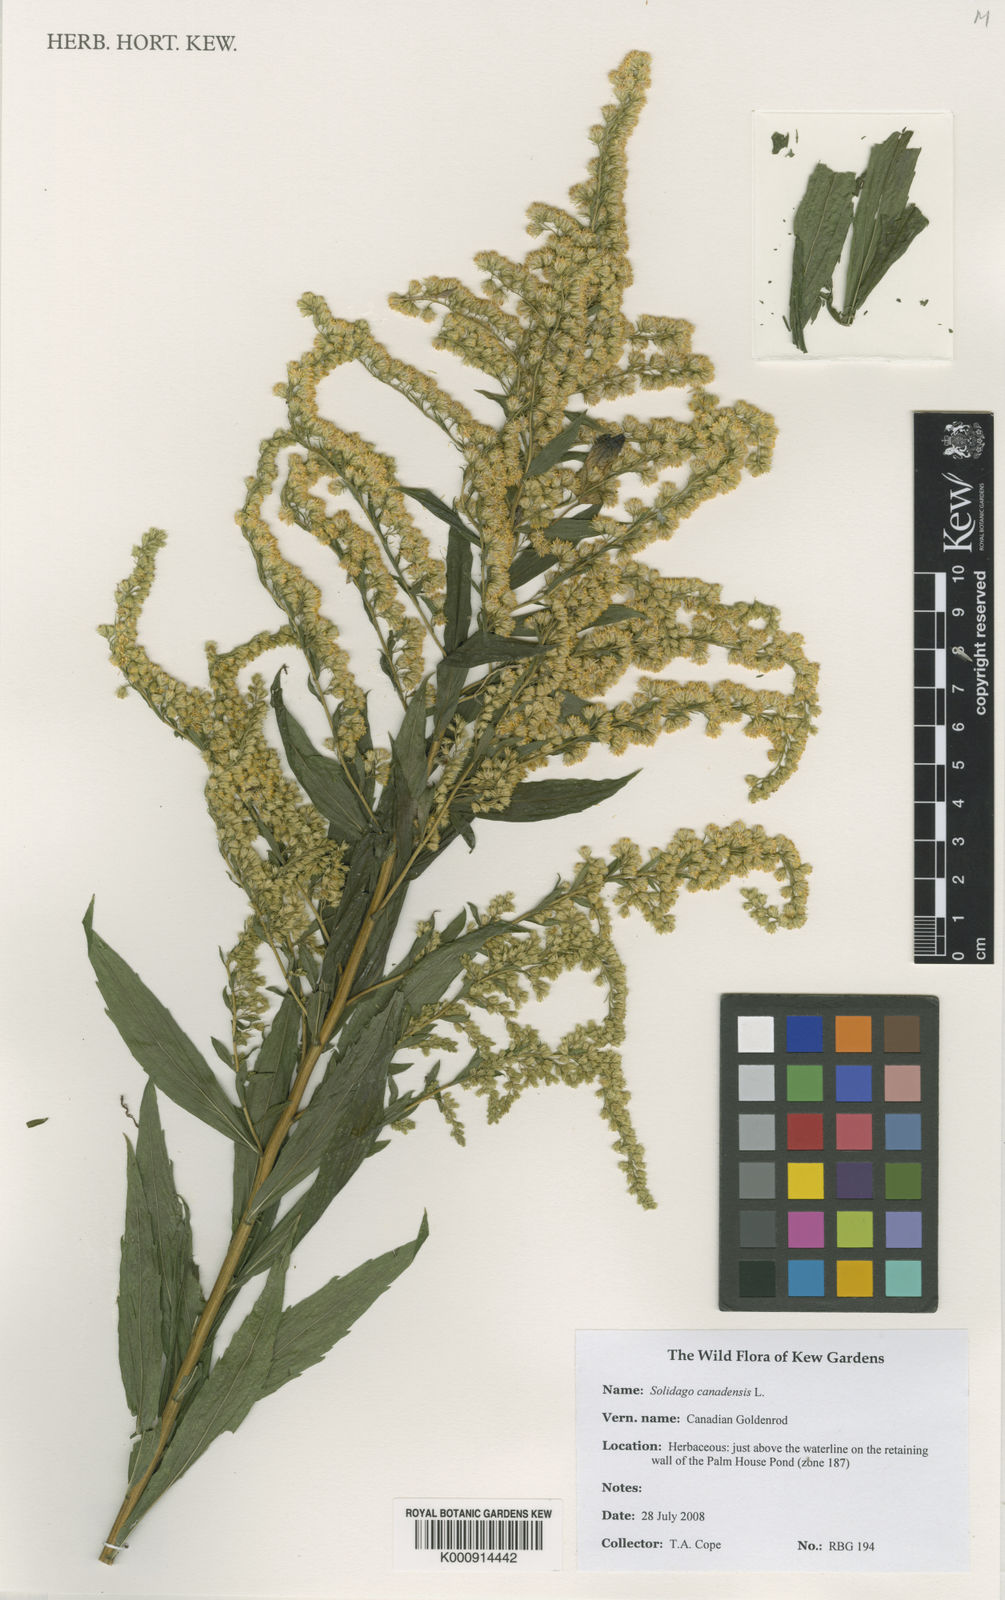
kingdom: Plantae
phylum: Tracheophyta
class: Magnoliopsida
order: Asterales
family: Asteraceae
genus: Solidago
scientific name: Solidago canadensis
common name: Canada goldenrod
